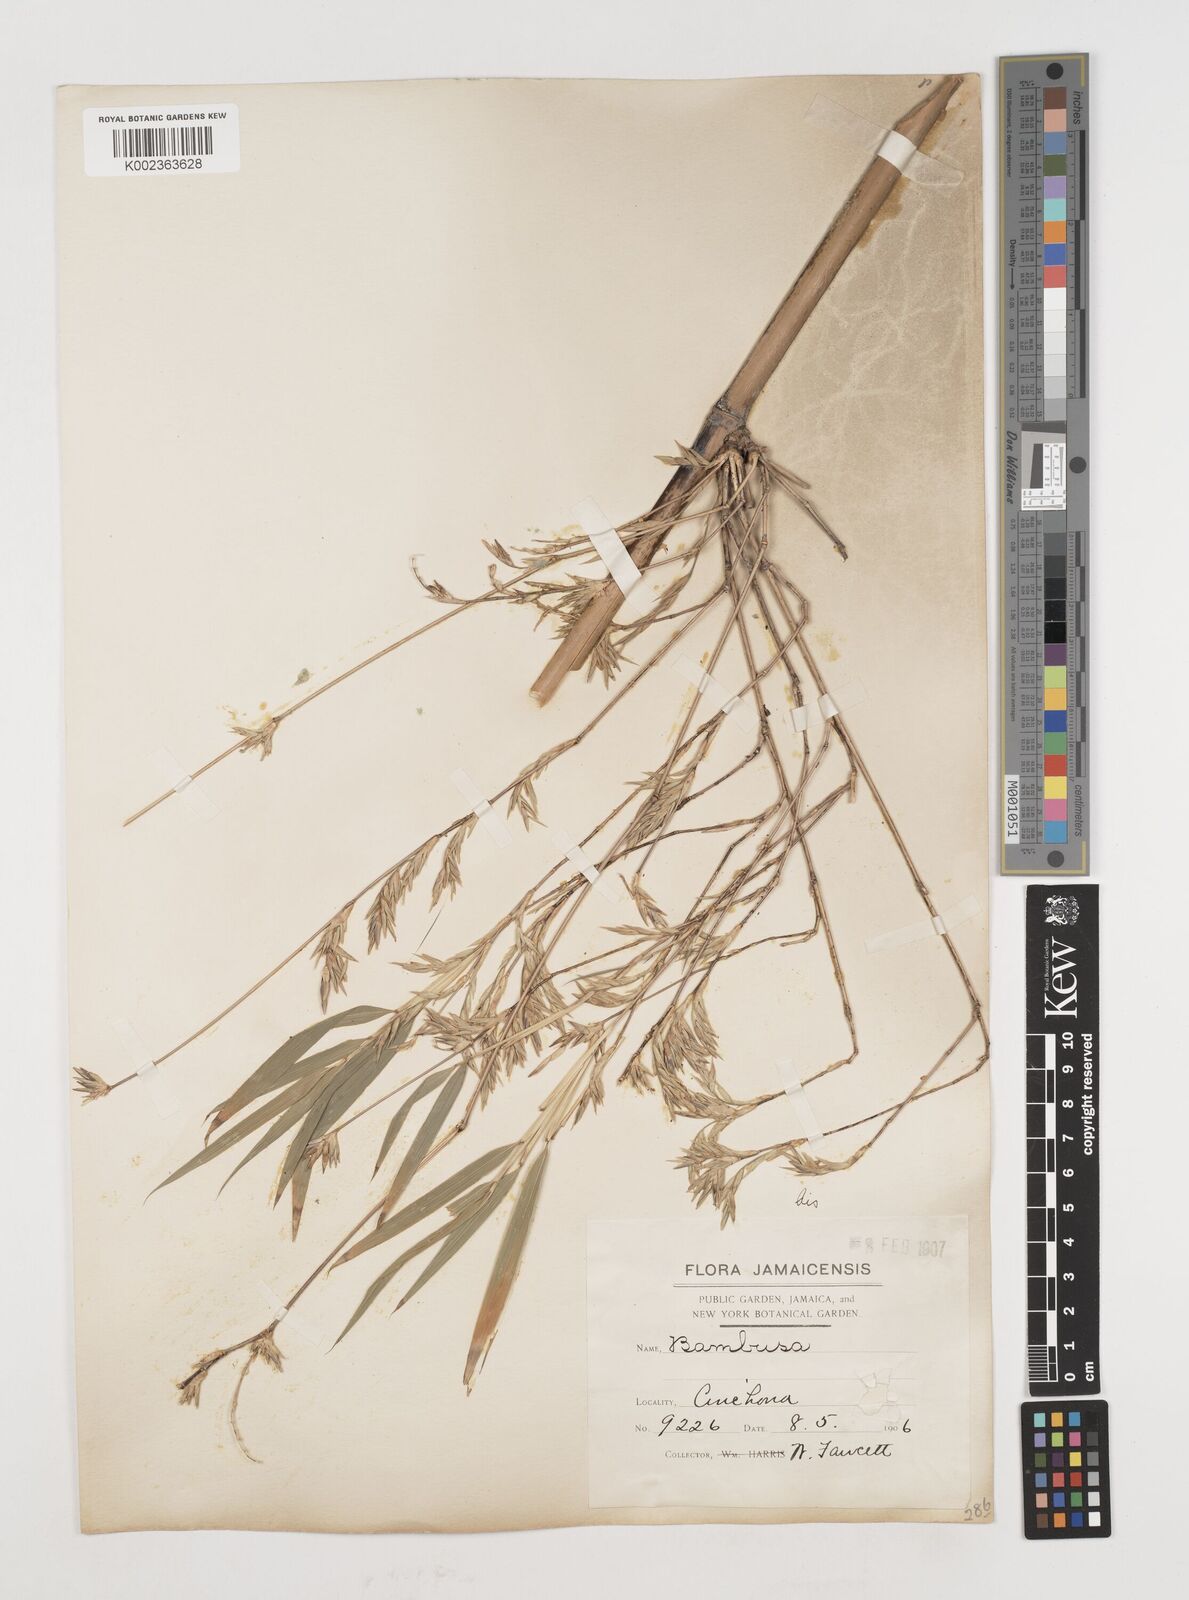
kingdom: Plantae
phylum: Tracheophyta
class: Liliopsida
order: Poales
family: Poaceae
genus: Himalayacalamus
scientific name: Himalayacalamus falconeri
